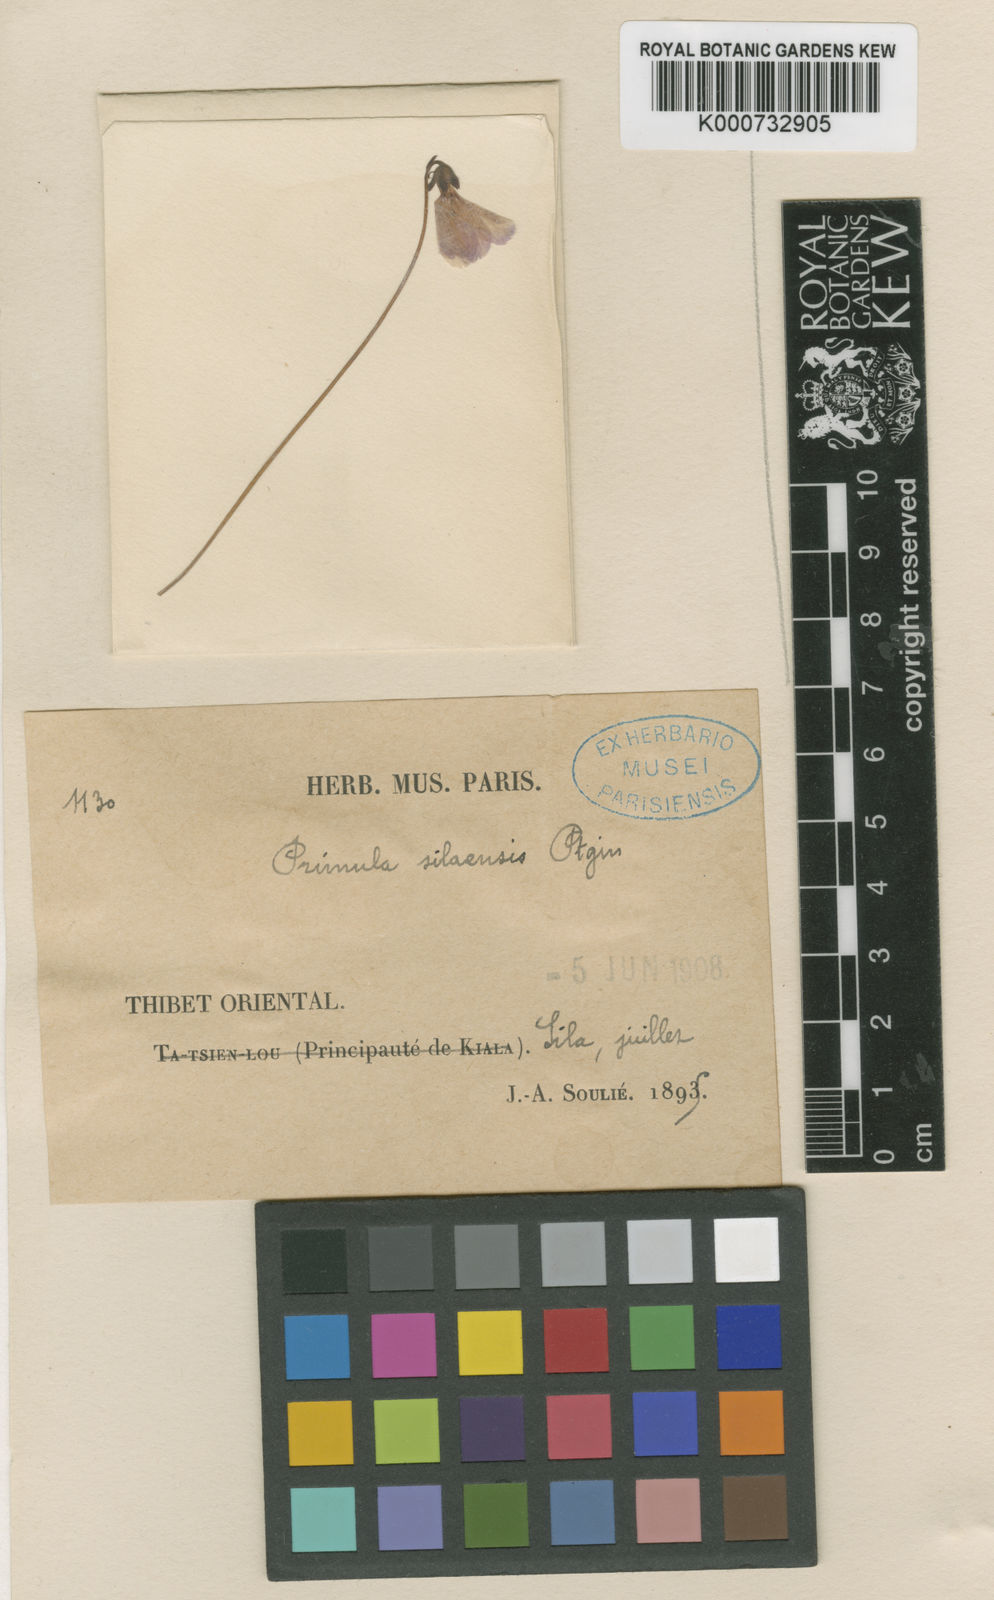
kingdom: Plantae
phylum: Tracheophyta
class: Magnoliopsida
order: Ericales
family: Primulaceae
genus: Primula
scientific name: Primula silaensis
